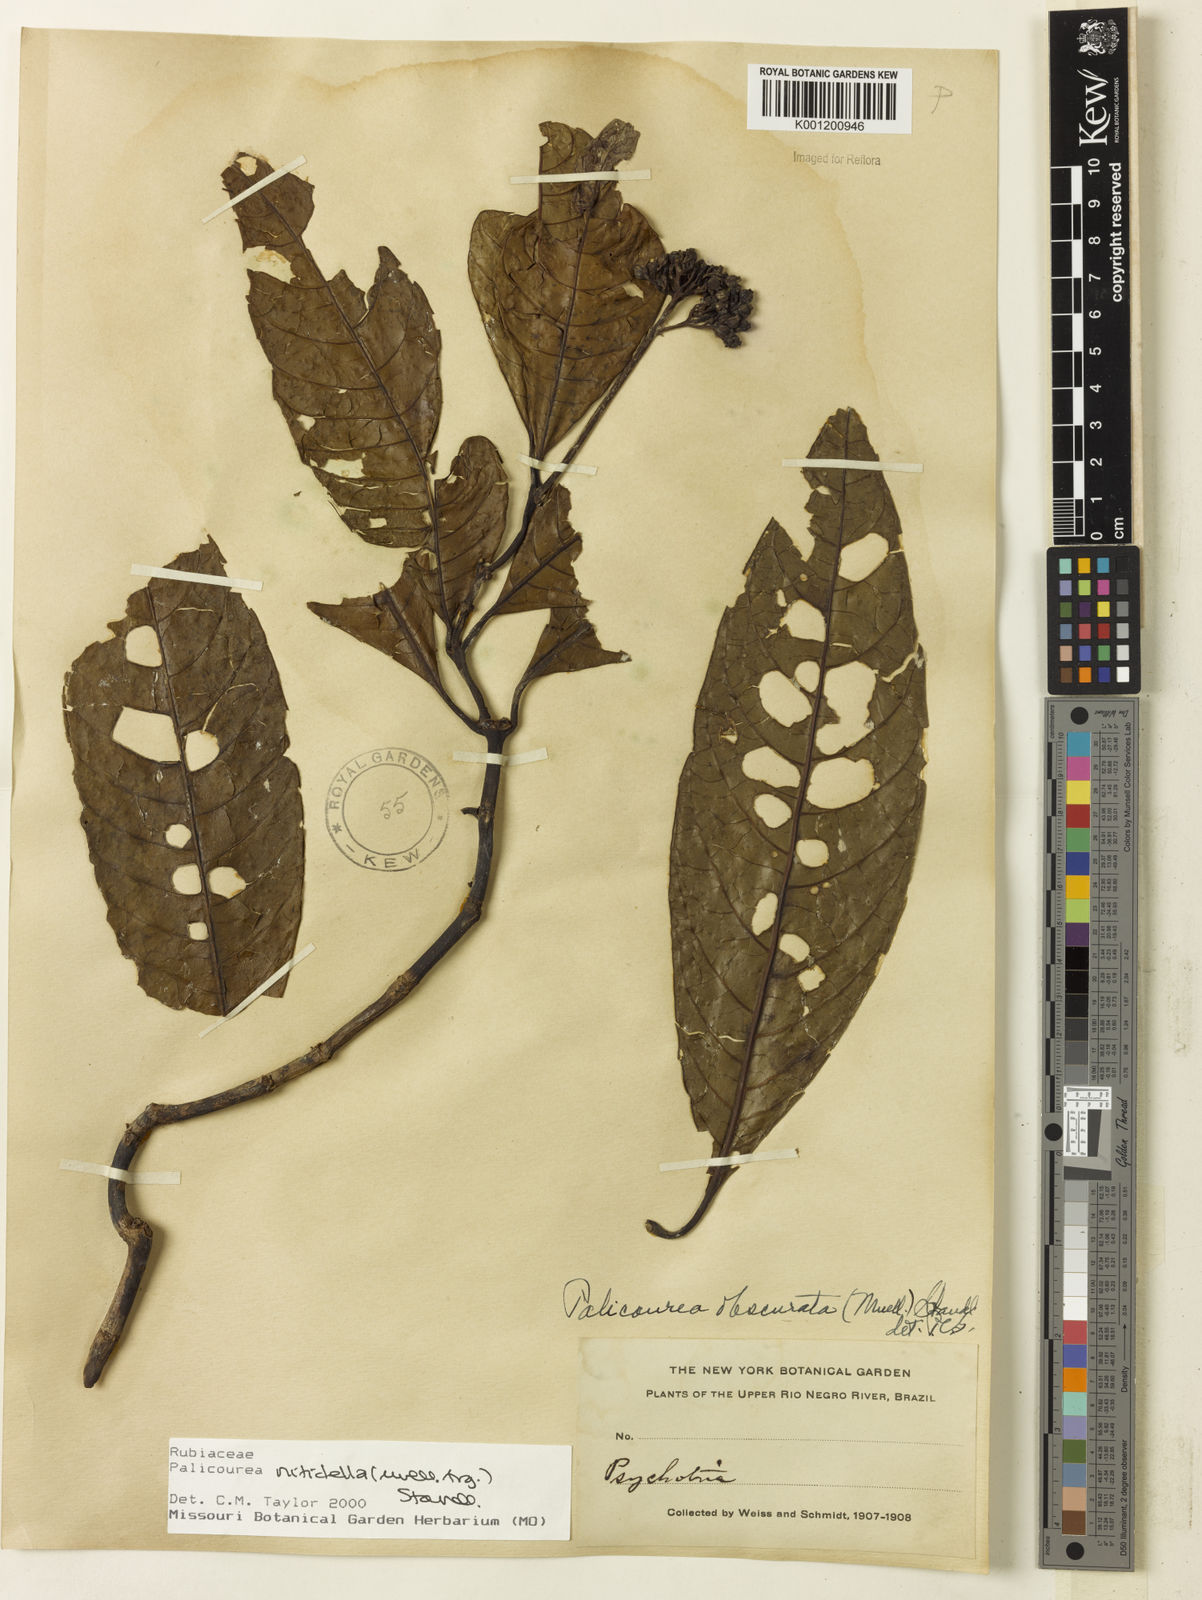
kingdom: Plantae
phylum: Tracheophyta
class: Magnoliopsida
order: Gentianales
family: Rubiaceae
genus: Palicourea
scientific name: Palicourea
